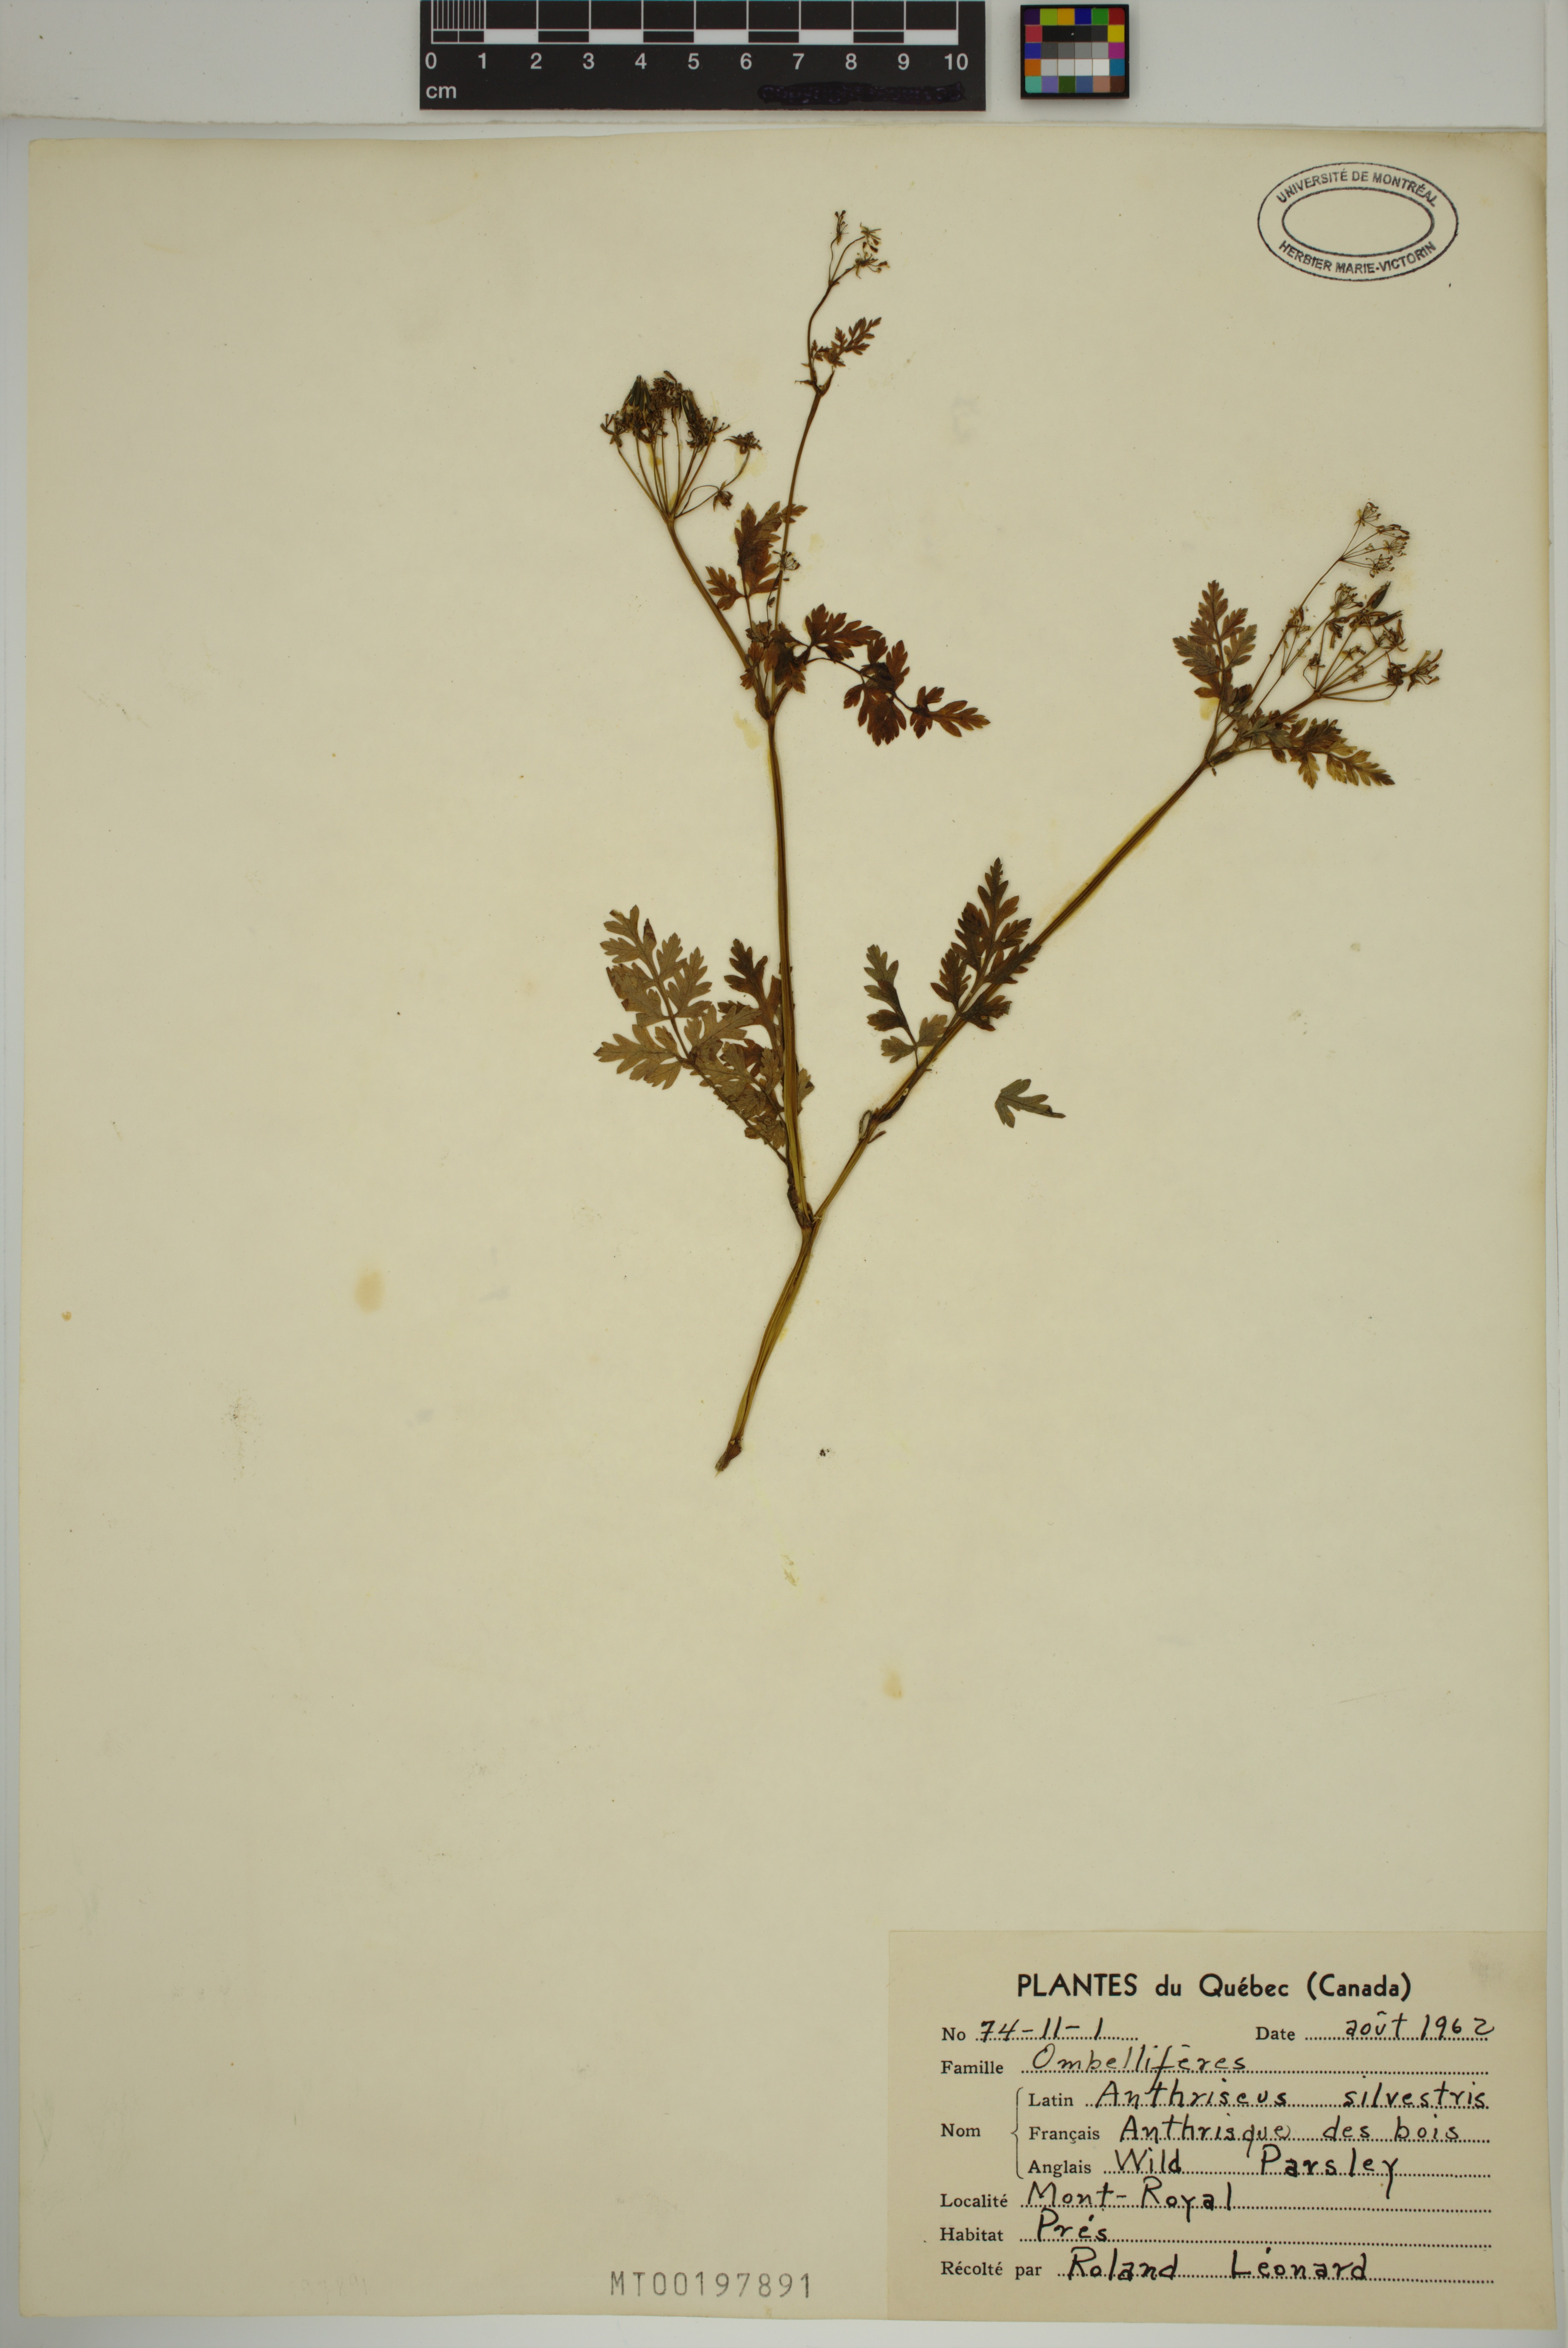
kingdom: Plantae
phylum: Tracheophyta
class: Magnoliopsida
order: Apiales
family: Apiaceae
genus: Anthriscus
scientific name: Anthriscus sylvestris
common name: Cow parsley
